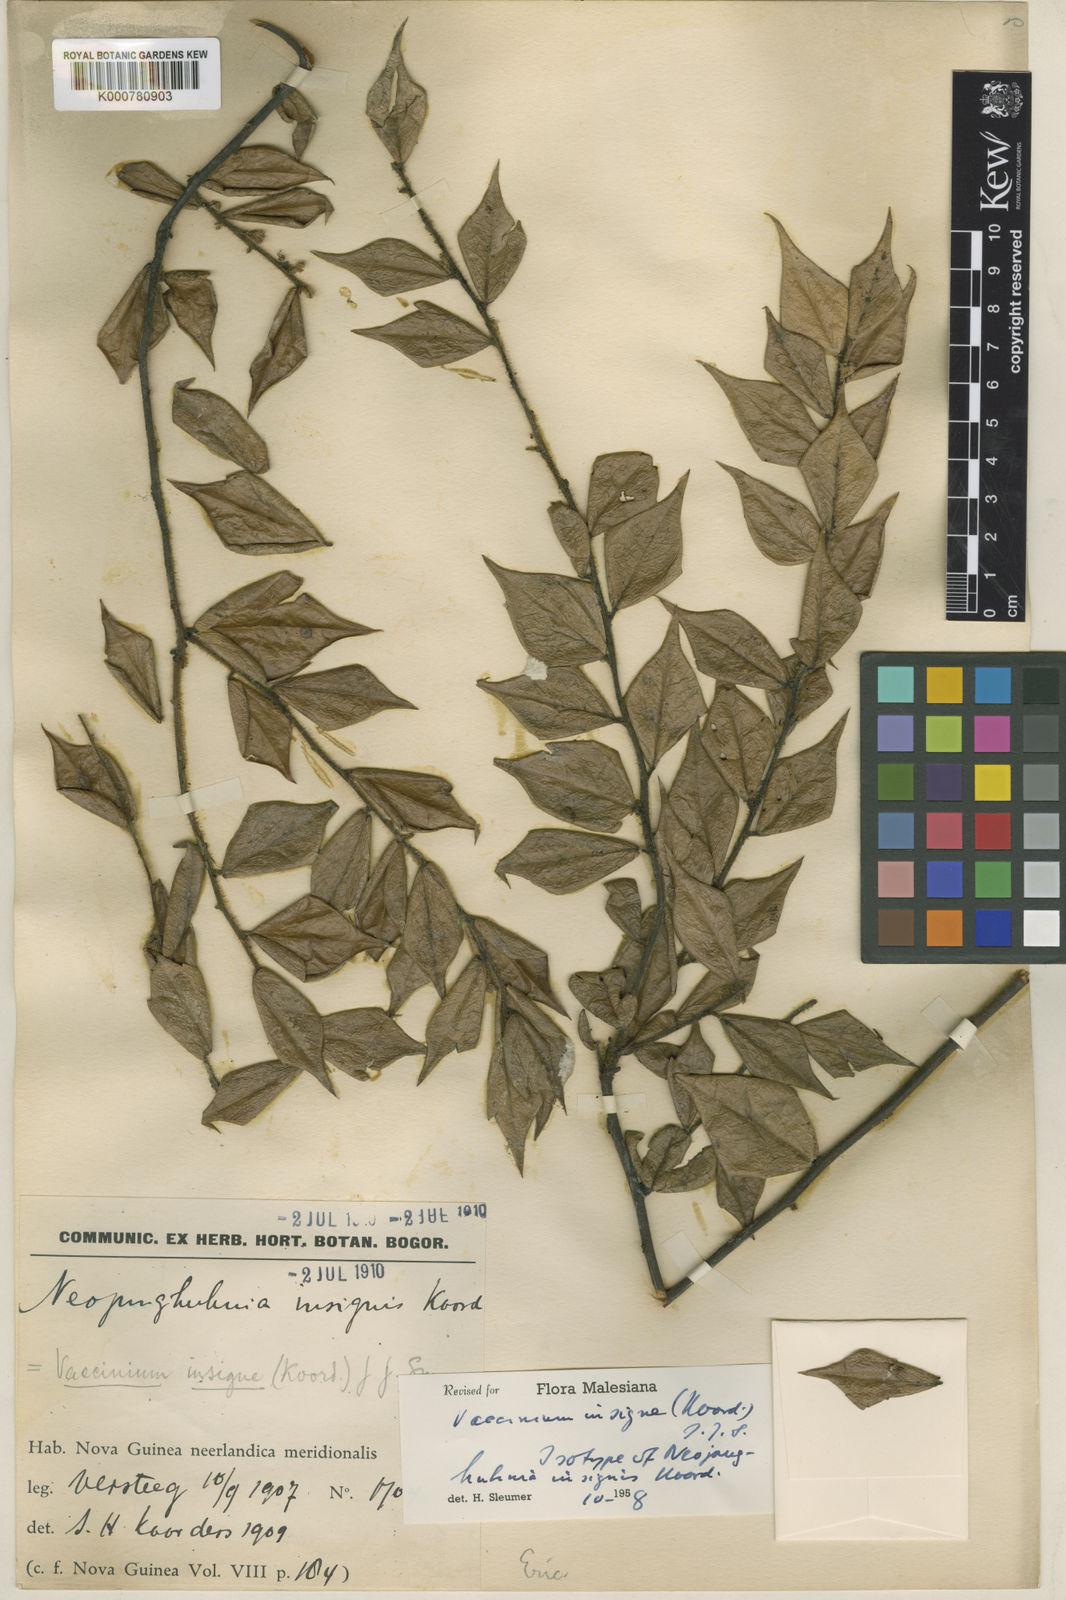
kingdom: Plantae
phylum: Tracheophyta
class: Magnoliopsida
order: Ericales
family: Ericaceae
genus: Vaccinium
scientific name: Vaccinium insigne
